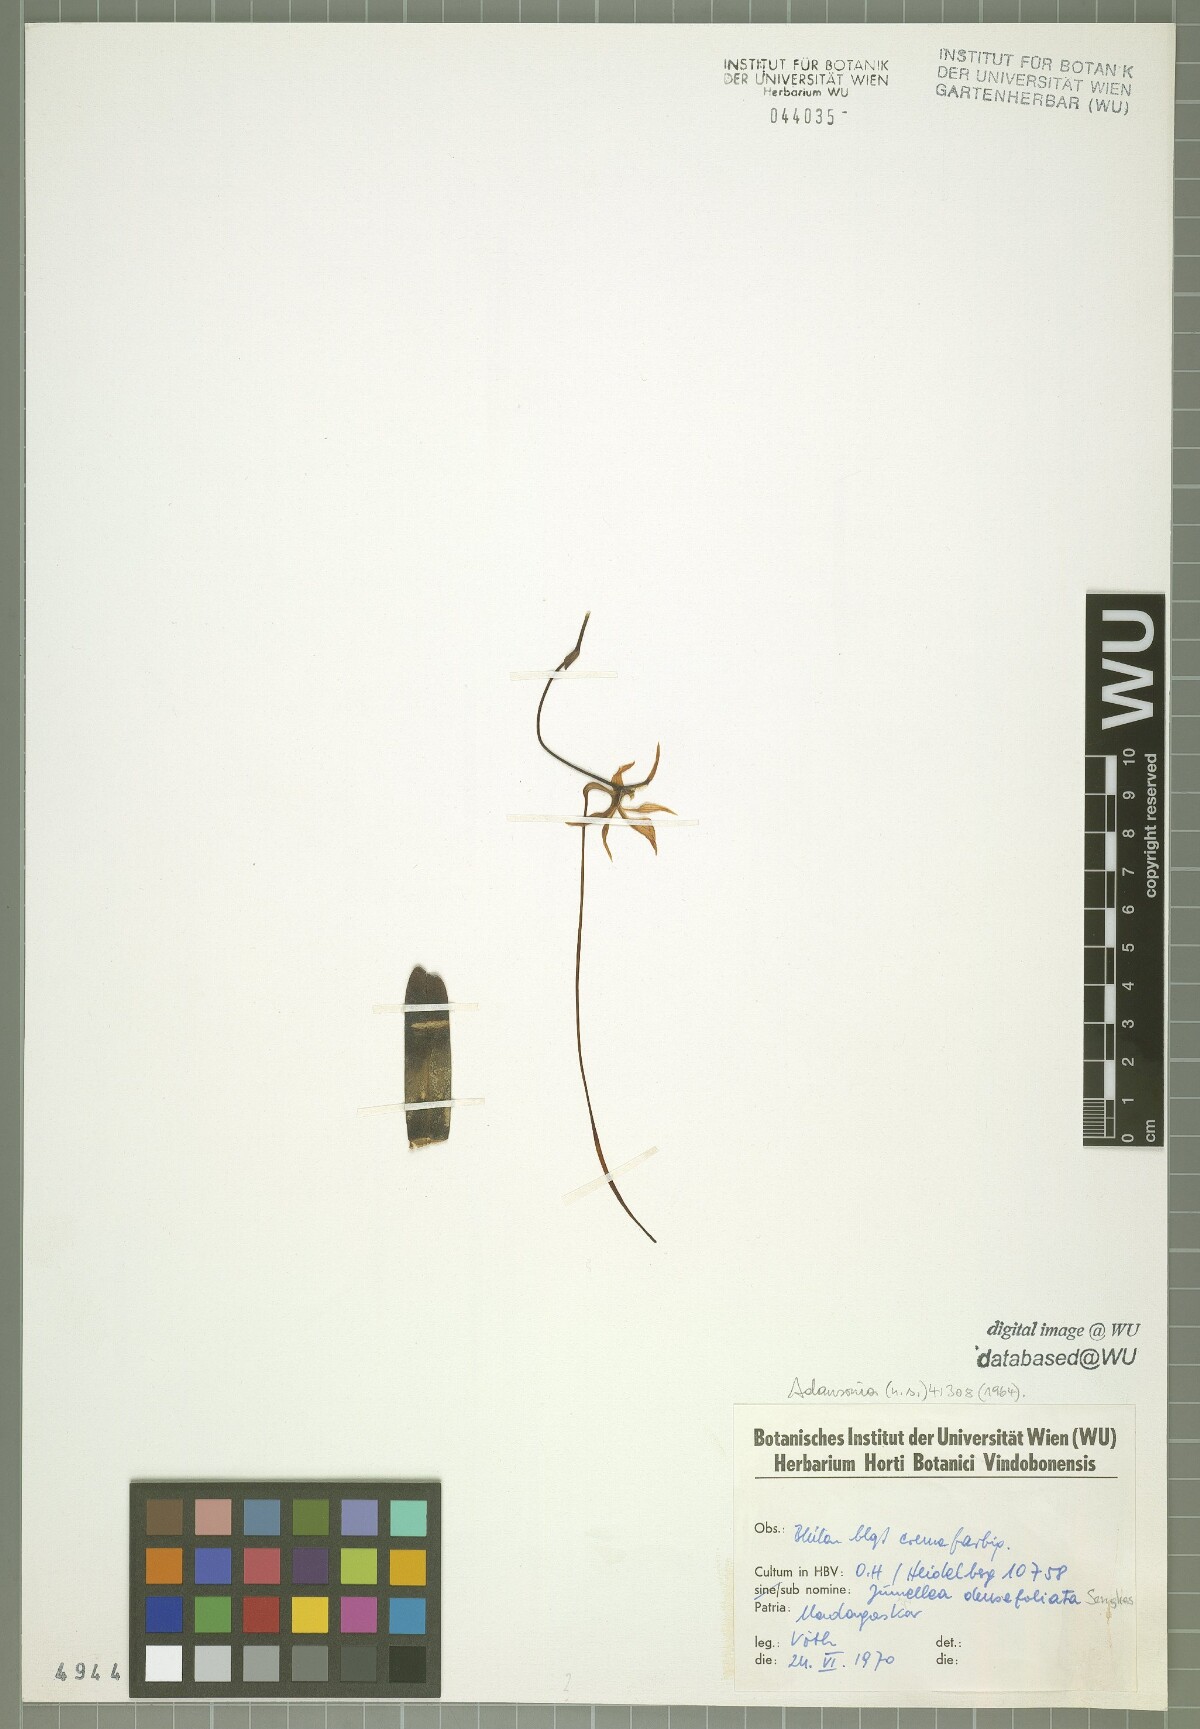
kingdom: Plantae
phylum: Tracheophyta
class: Liliopsida
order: Asparagales
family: Orchidaceae
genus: Jumellea
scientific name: Jumellea densefoliata
